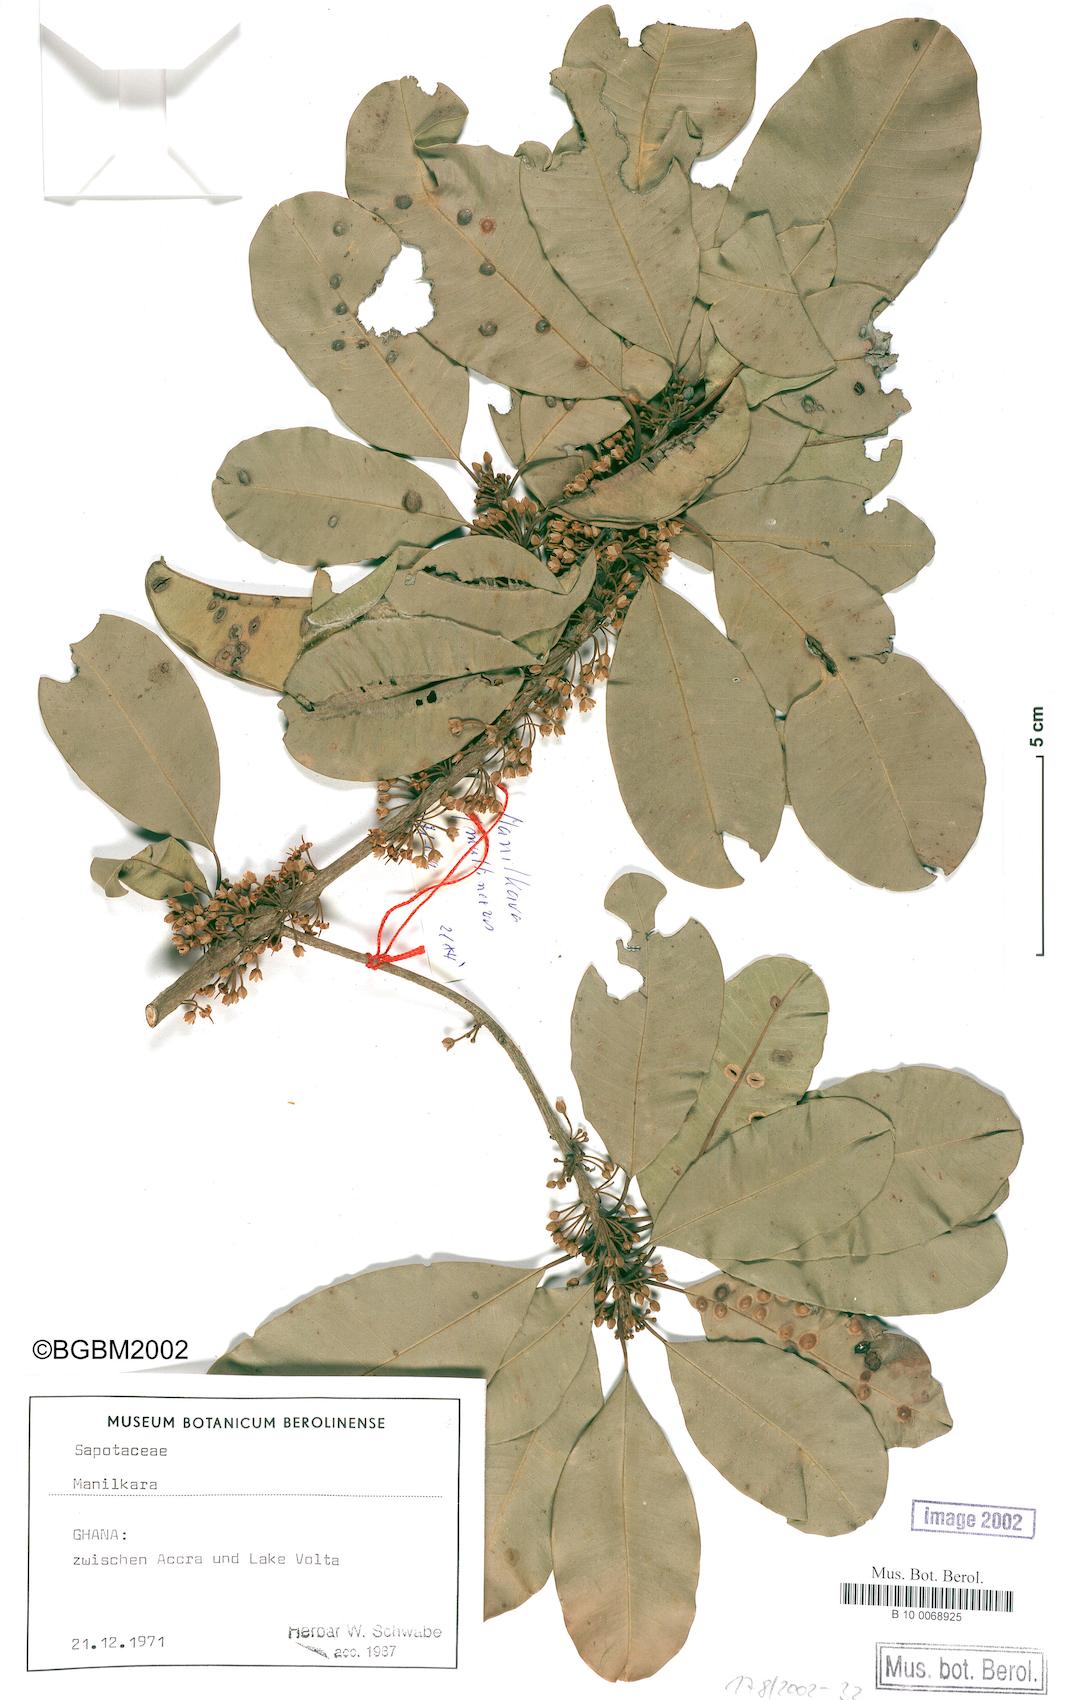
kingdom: Plantae
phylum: Tracheophyta
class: Magnoliopsida
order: Ericales
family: Sapotaceae
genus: Manilkara
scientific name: Manilkara
